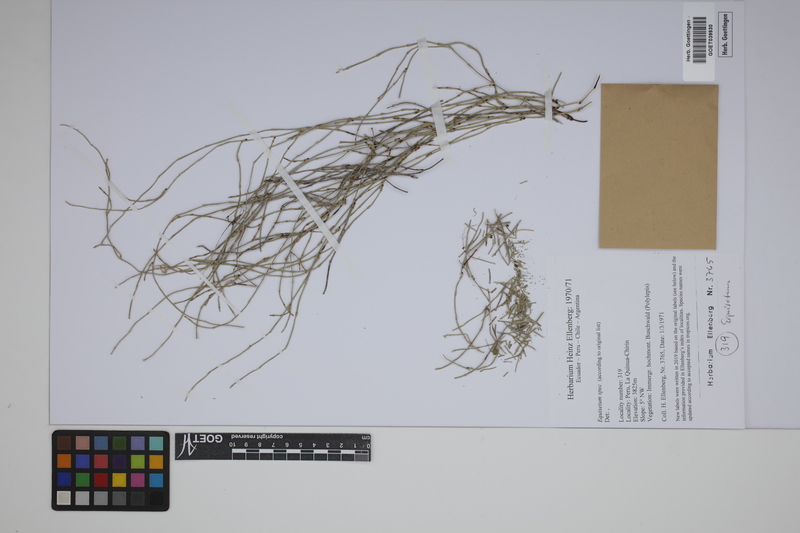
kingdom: Plantae
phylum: Tracheophyta
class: Polypodiopsida
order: Equisetales
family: Equisetaceae
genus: Equisetum
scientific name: Equisetum
